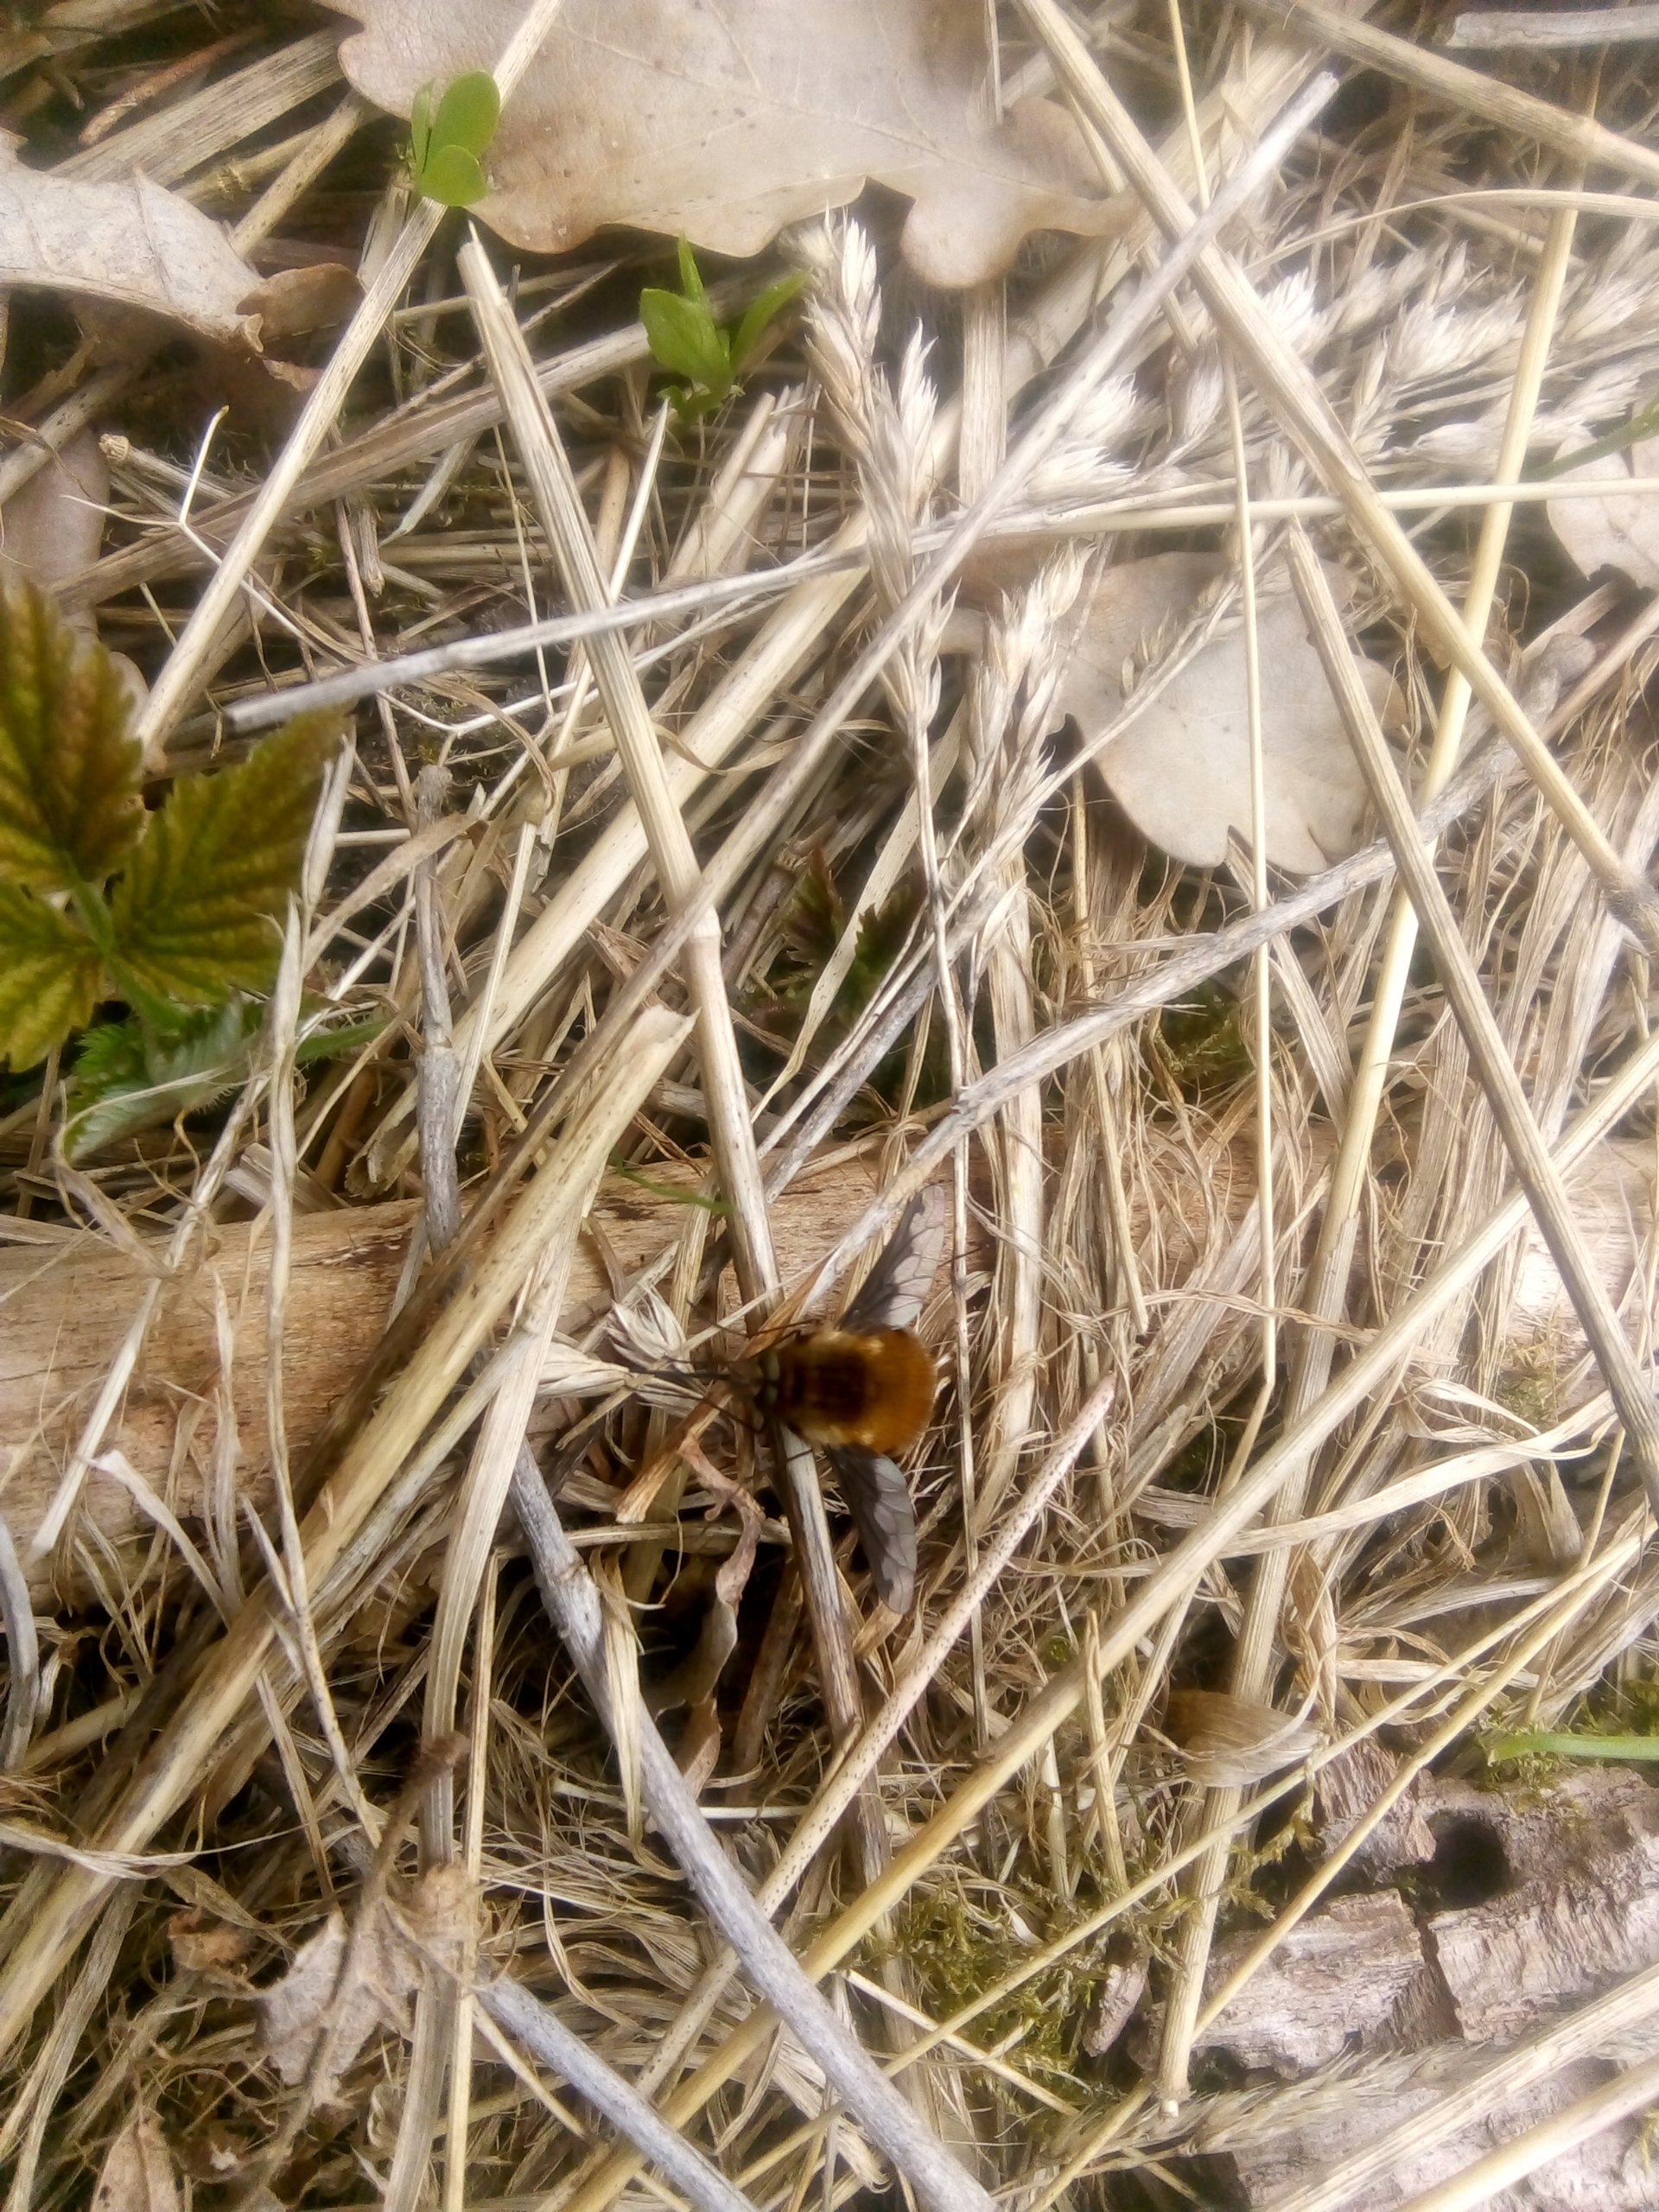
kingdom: Animalia
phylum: Arthropoda
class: Insecta
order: Diptera
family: Bombyliidae
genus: Bombylius
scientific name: Bombylius major
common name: Stor humleflue
